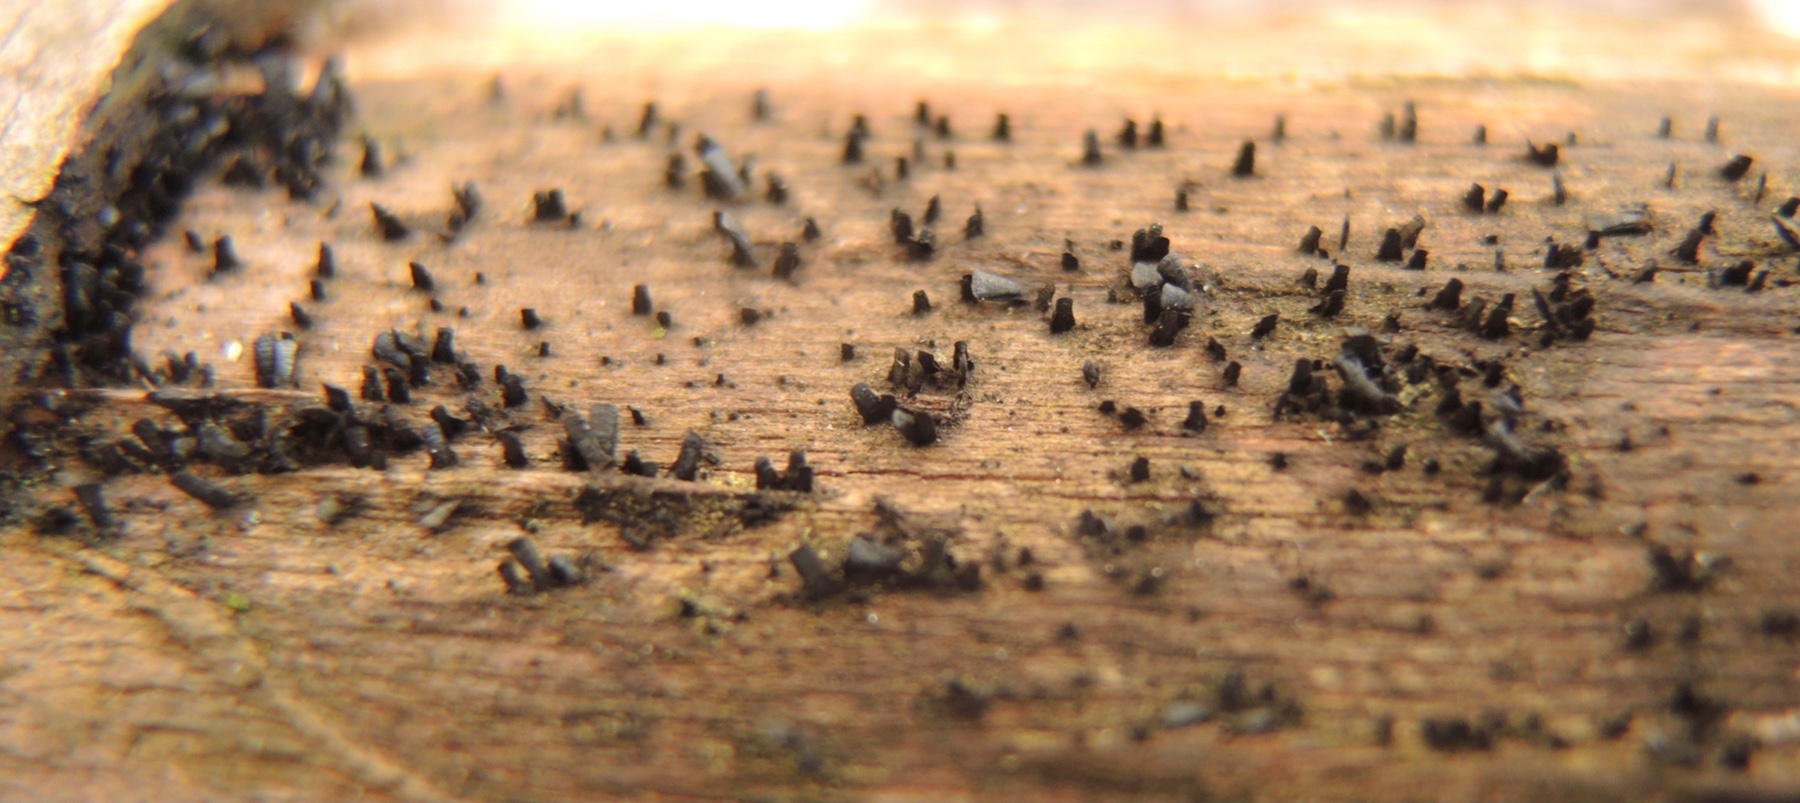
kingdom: Fungi
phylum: Ascomycota
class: Eurotiomycetes
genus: Glyphium
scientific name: Glyphium elatum
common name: kuløkse
